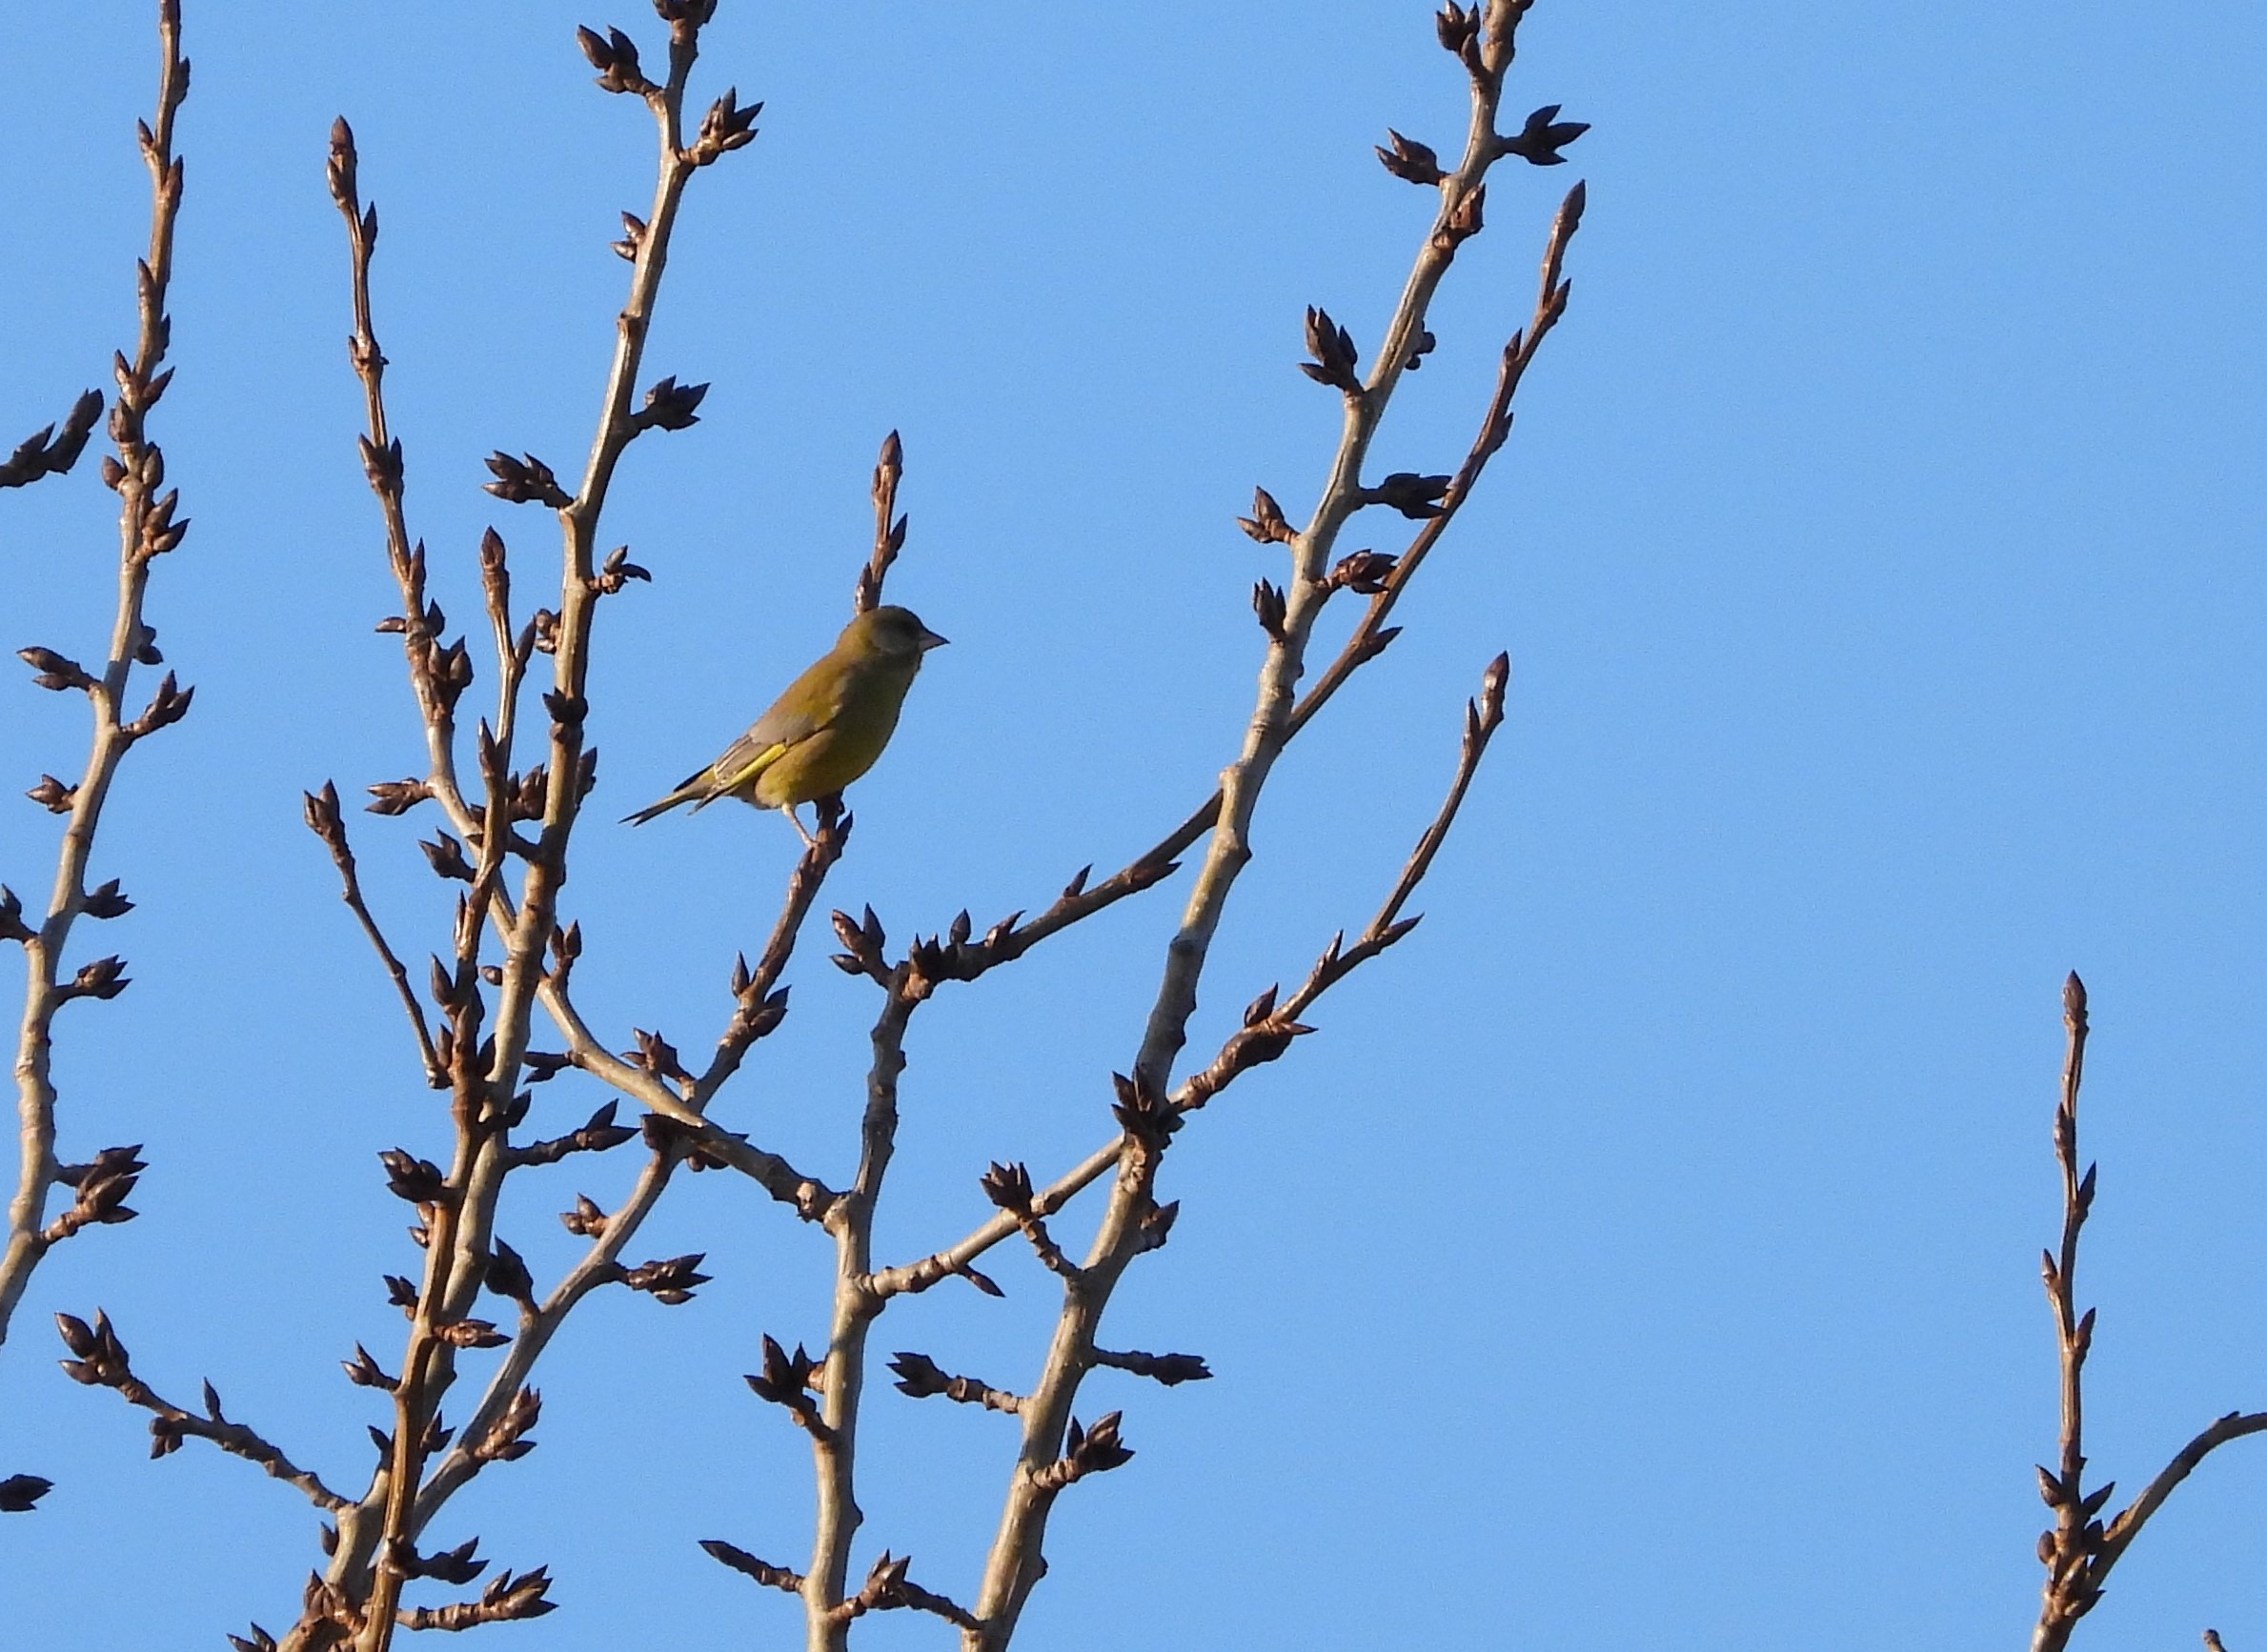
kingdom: Plantae
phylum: Tracheophyta
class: Liliopsida
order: Poales
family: Poaceae
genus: Chloris
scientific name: Chloris chloris
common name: Grønirisk
